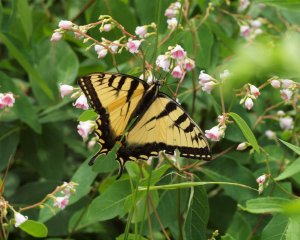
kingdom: Animalia
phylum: Arthropoda
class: Insecta
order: Lepidoptera
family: Papilionidae
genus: Pterourus
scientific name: Pterourus canadensis
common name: Canadian Tiger Swallowtail
